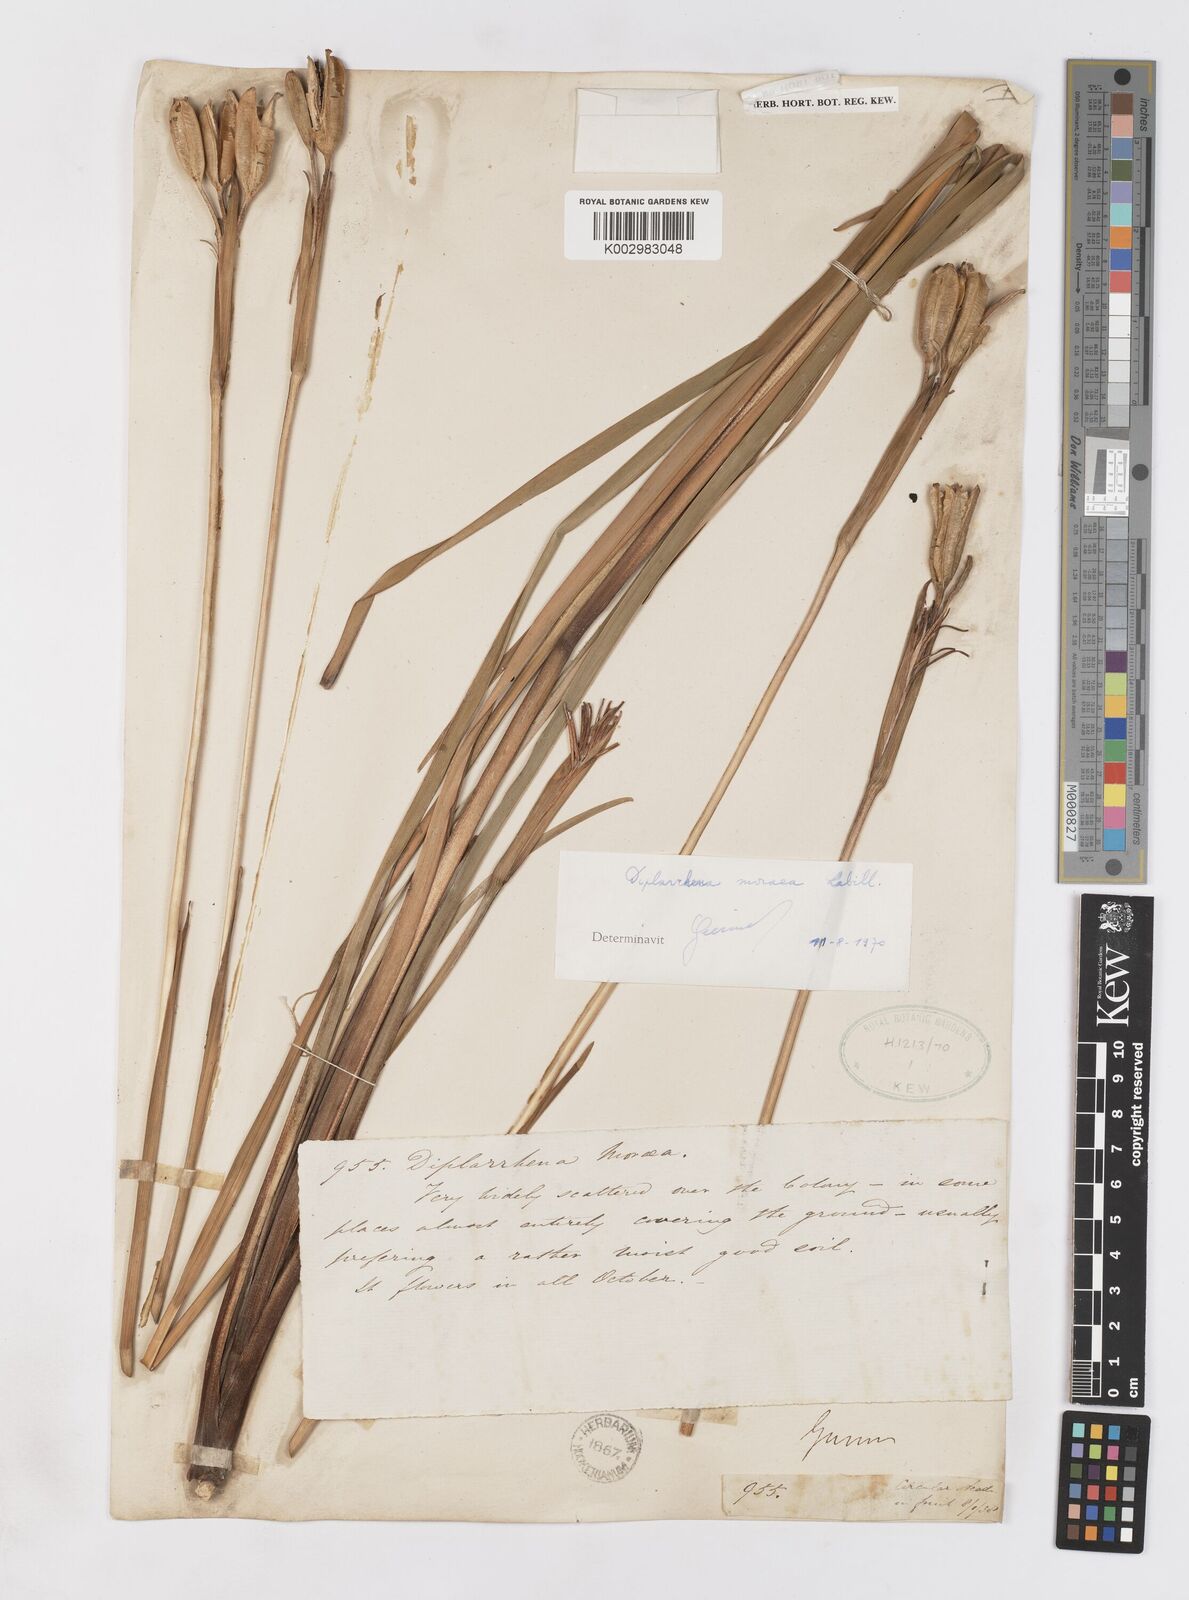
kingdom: Plantae
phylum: Tracheophyta
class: Liliopsida
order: Asparagales
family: Iridaceae
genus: Diplarrena
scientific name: Diplarrena moraea
